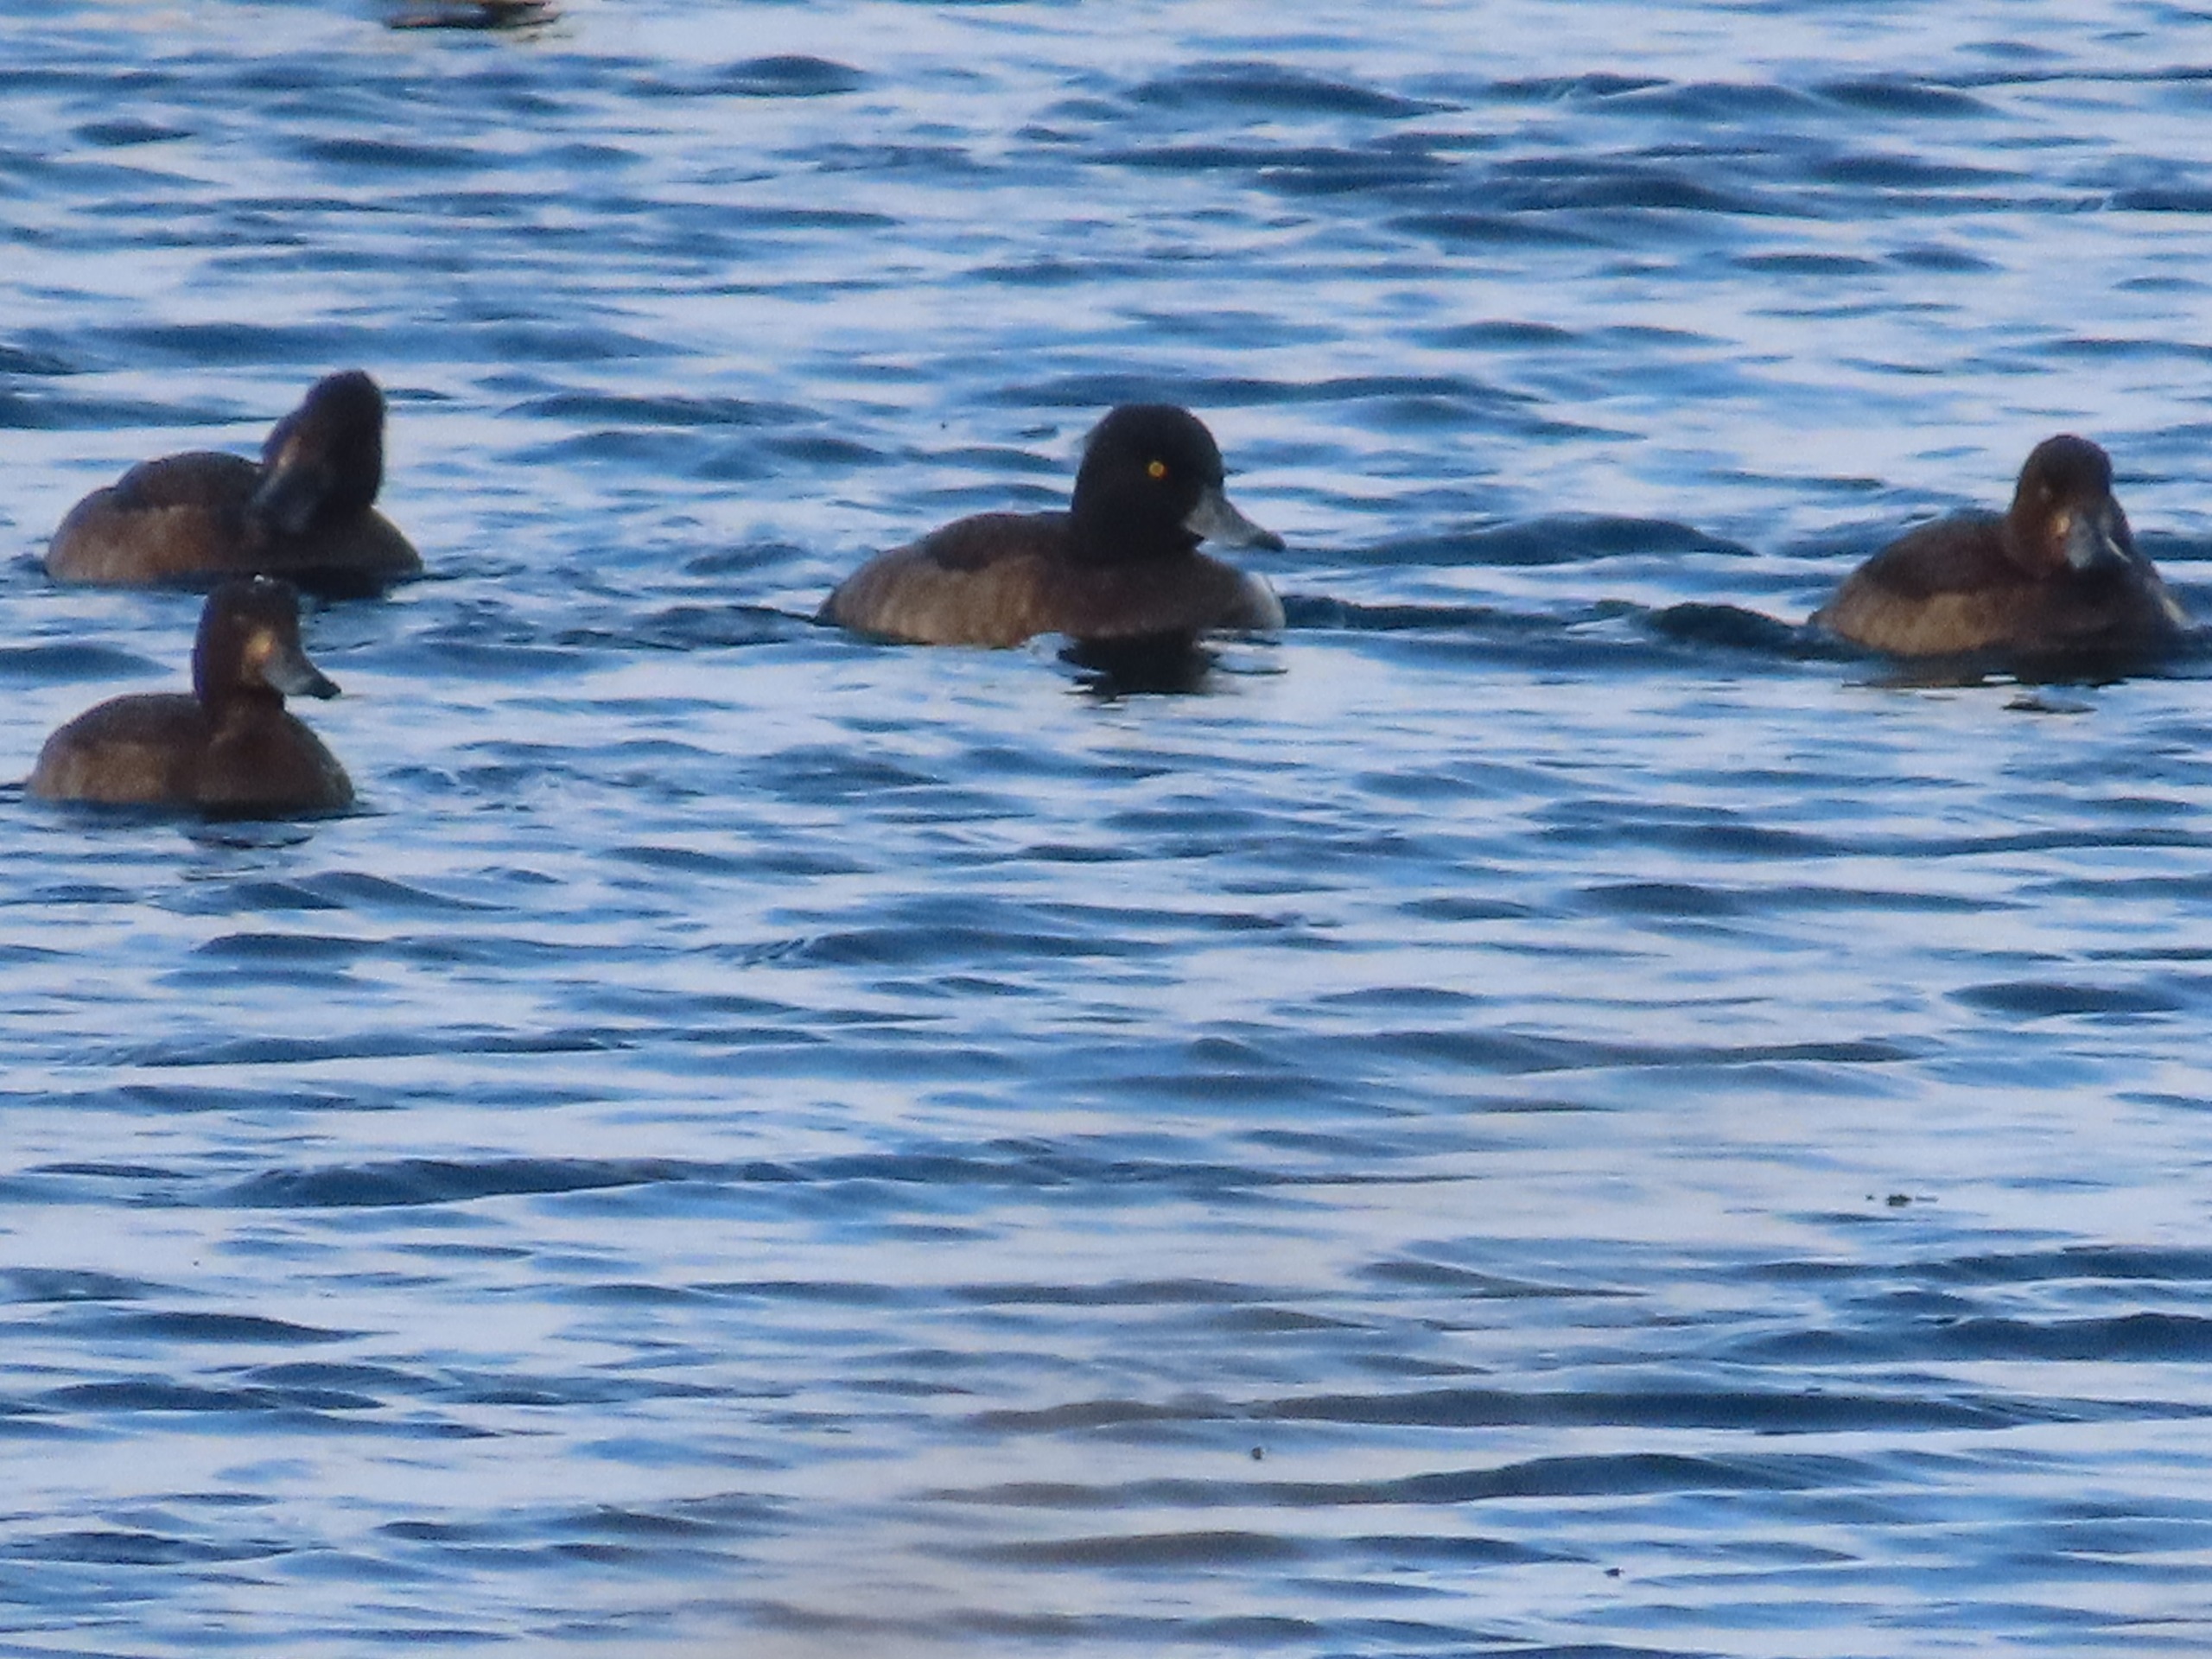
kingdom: Animalia
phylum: Chordata
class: Aves
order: Anseriformes
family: Anatidae
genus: Aythya
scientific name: Aythya fuligula
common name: Troldand
